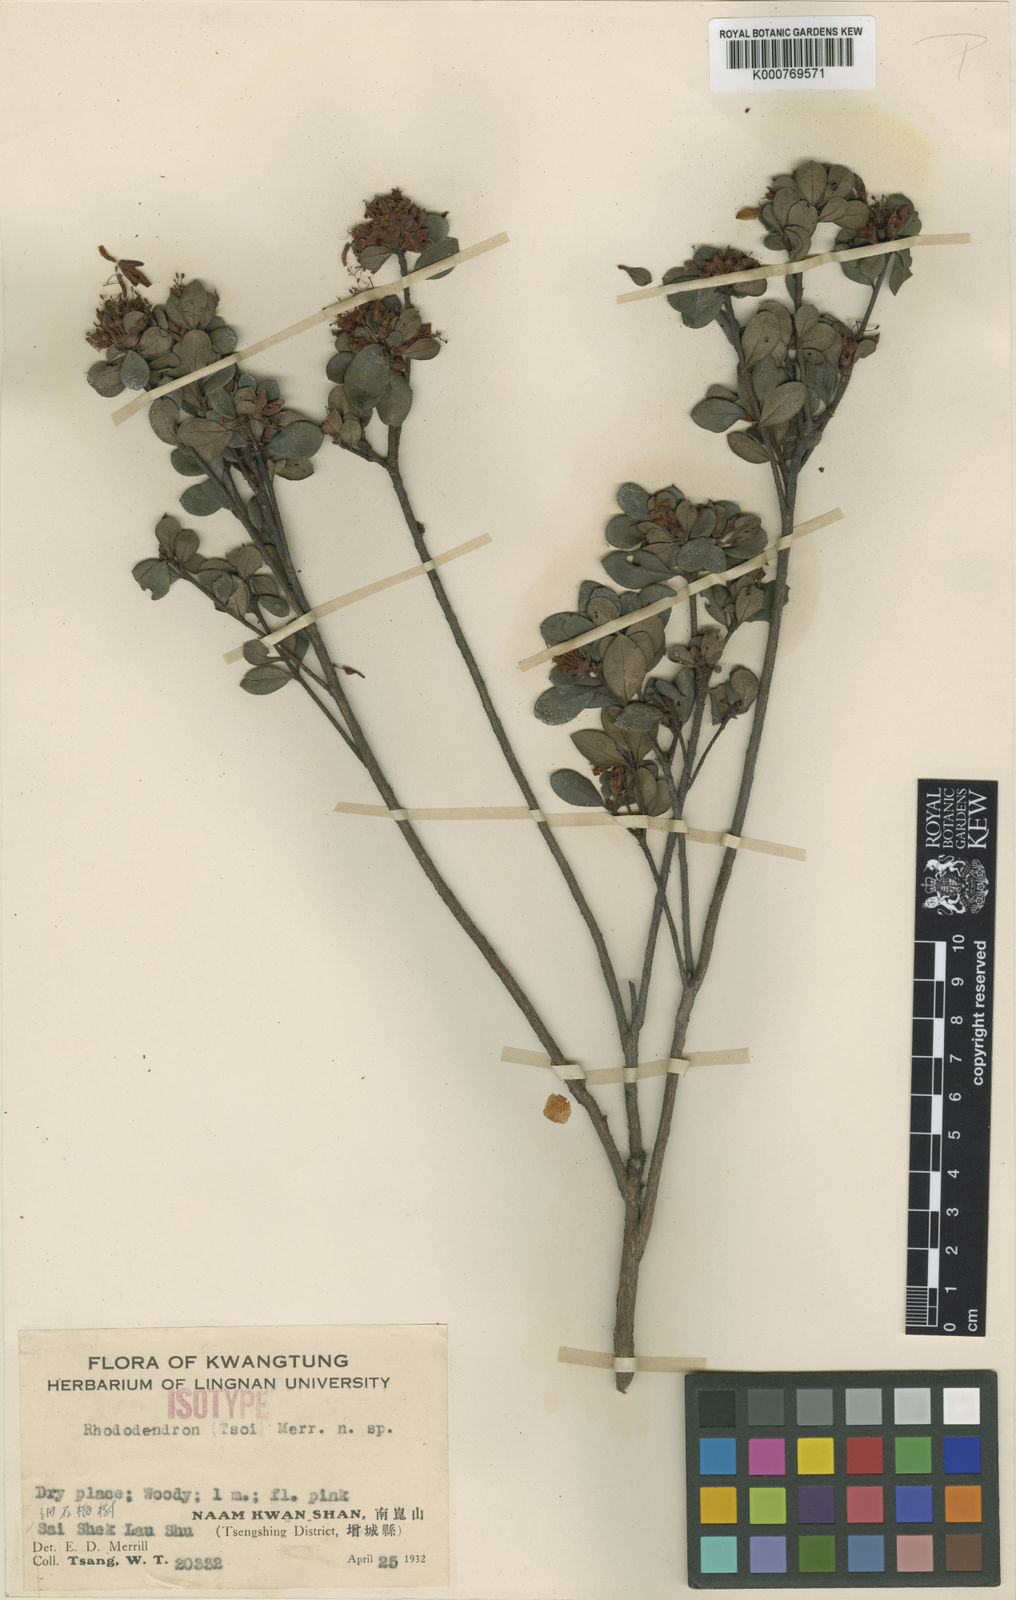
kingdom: Plantae
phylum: Tracheophyta
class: Magnoliopsida
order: Ericales
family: Ericaceae
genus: Rhododendron
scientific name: Rhododendron tsoi
